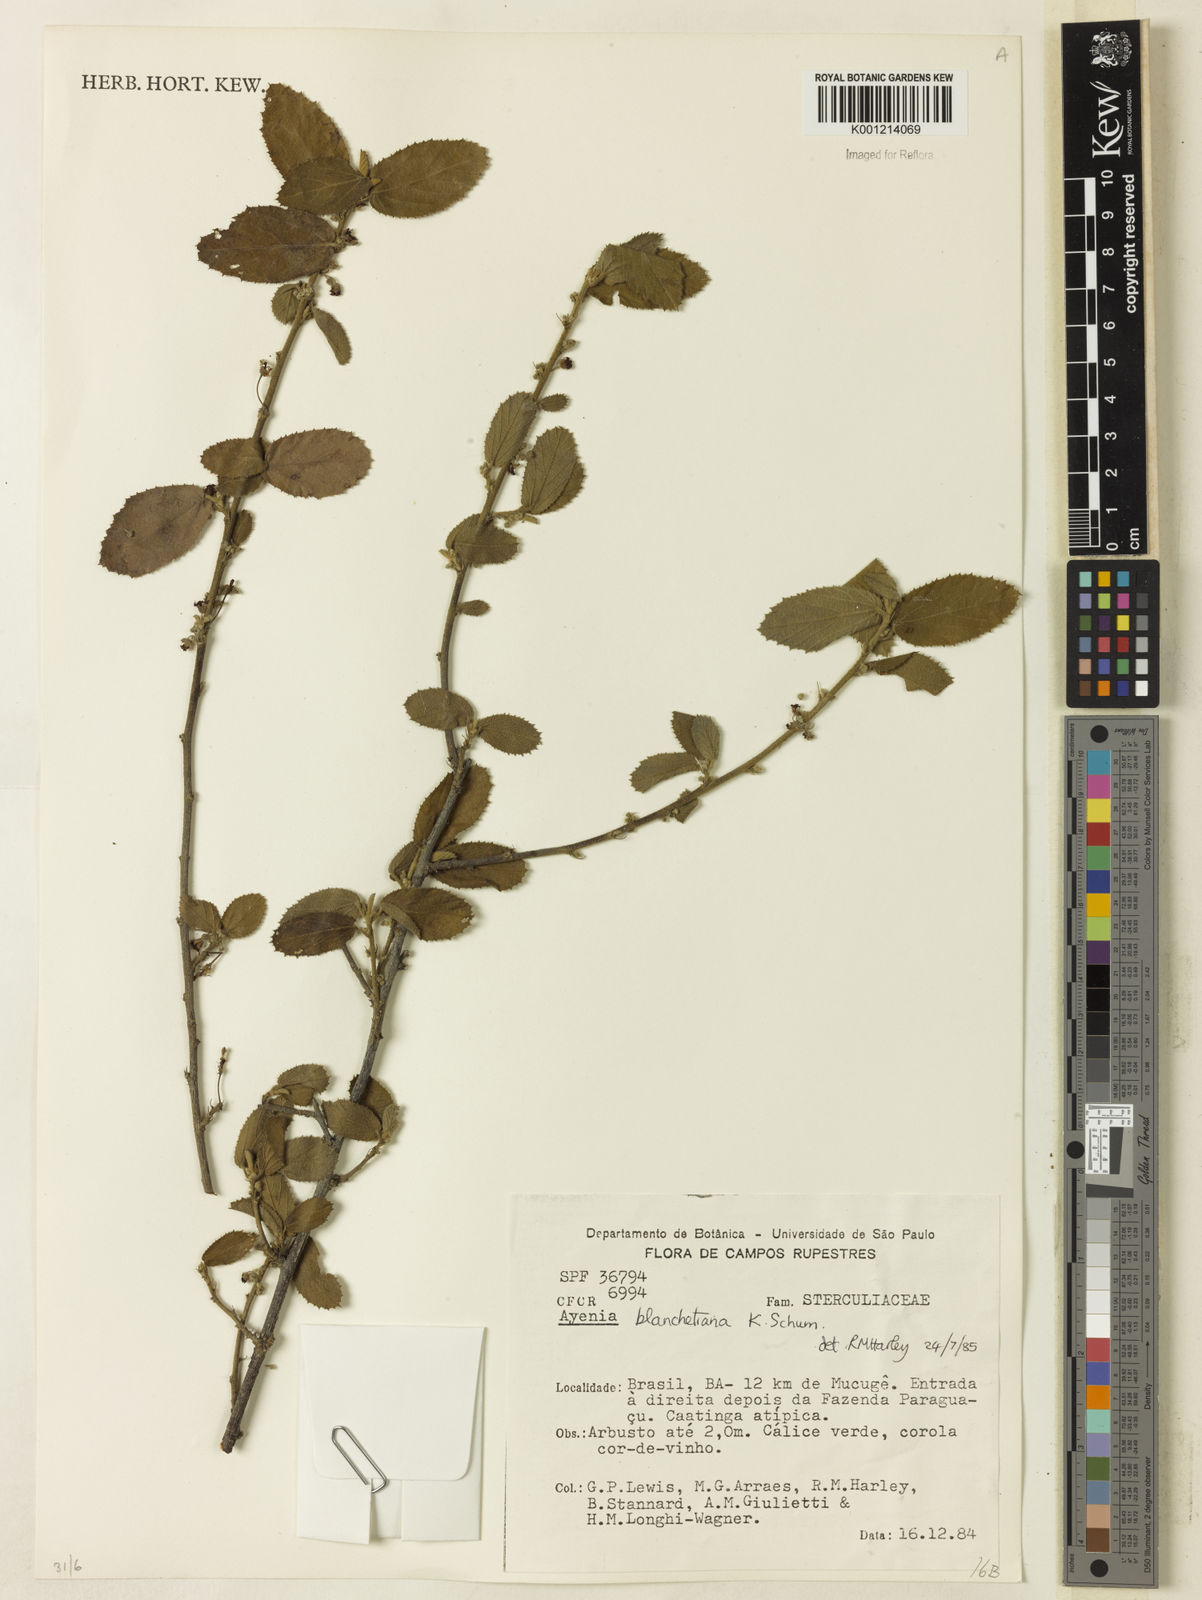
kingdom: Plantae
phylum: Tracheophyta
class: Magnoliopsida
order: Malvales
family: Malvaceae
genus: Ayenia
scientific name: Ayenia blanchetiana
